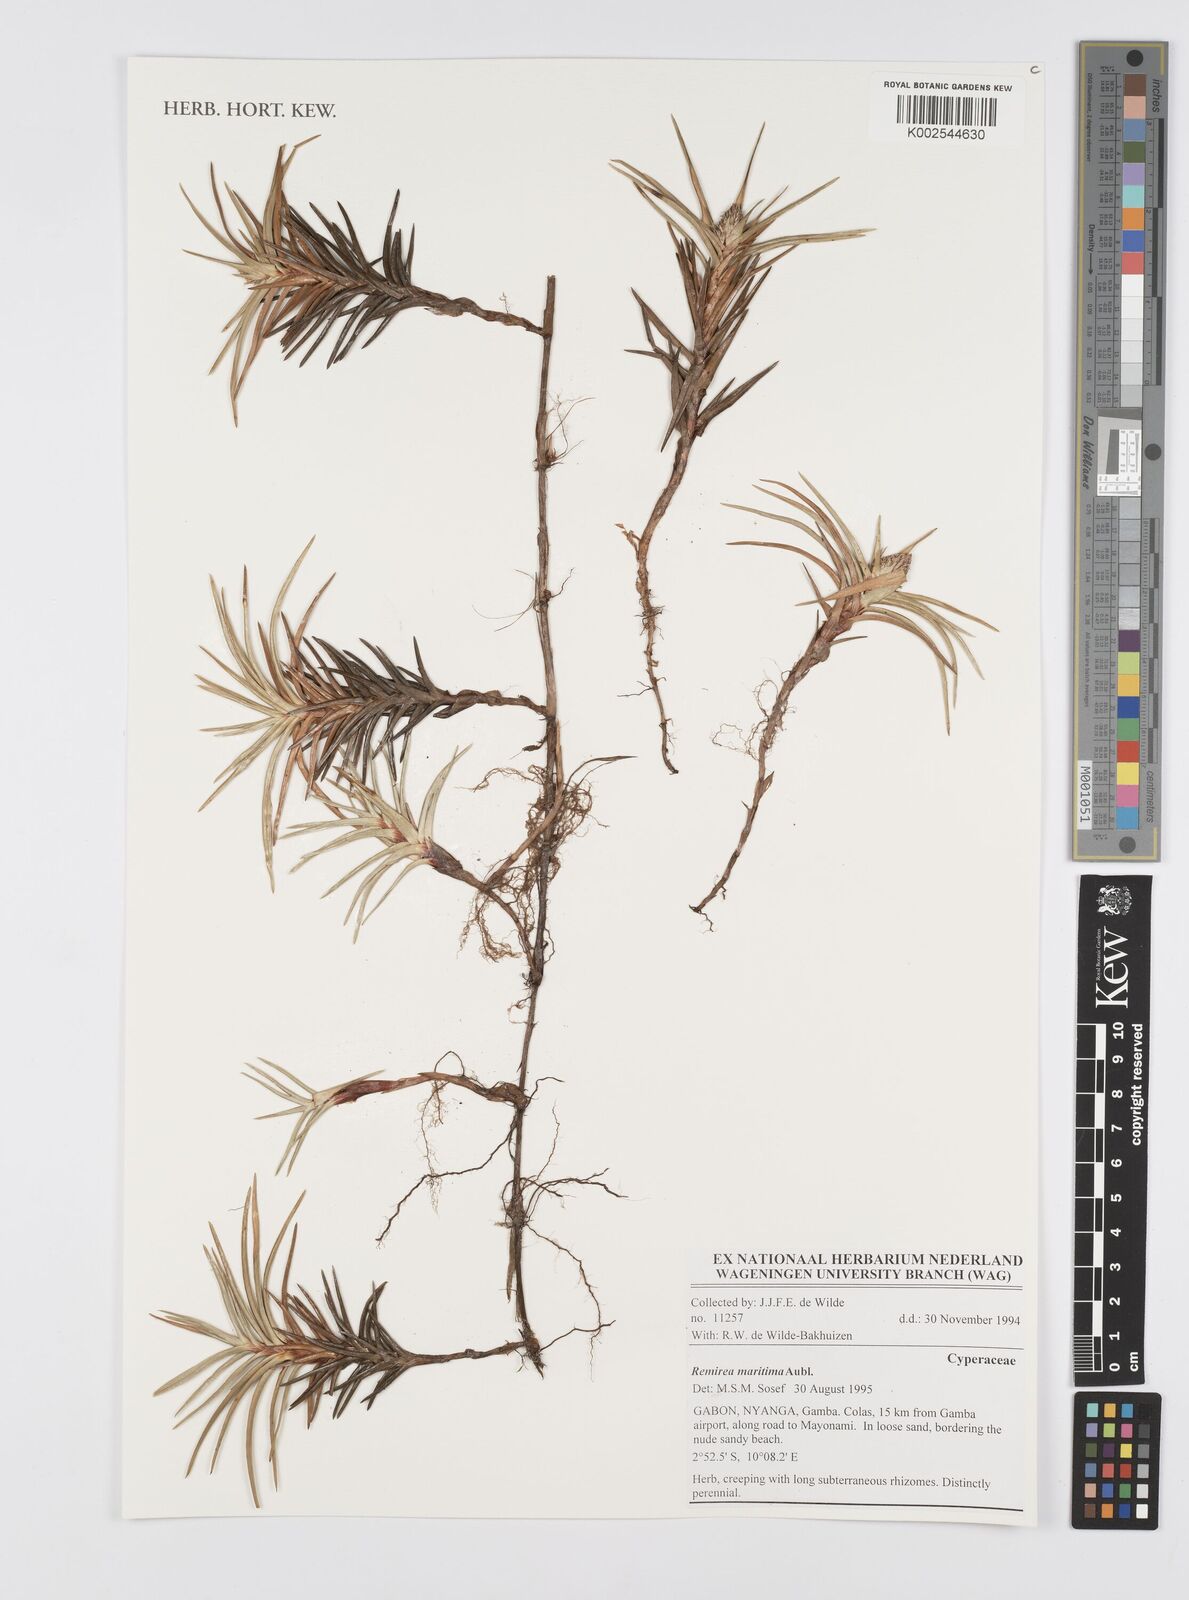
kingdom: Plantae
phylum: Tracheophyta
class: Liliopsida
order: Poales
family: Cyperaceae
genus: Cyperus
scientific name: Cyperus
